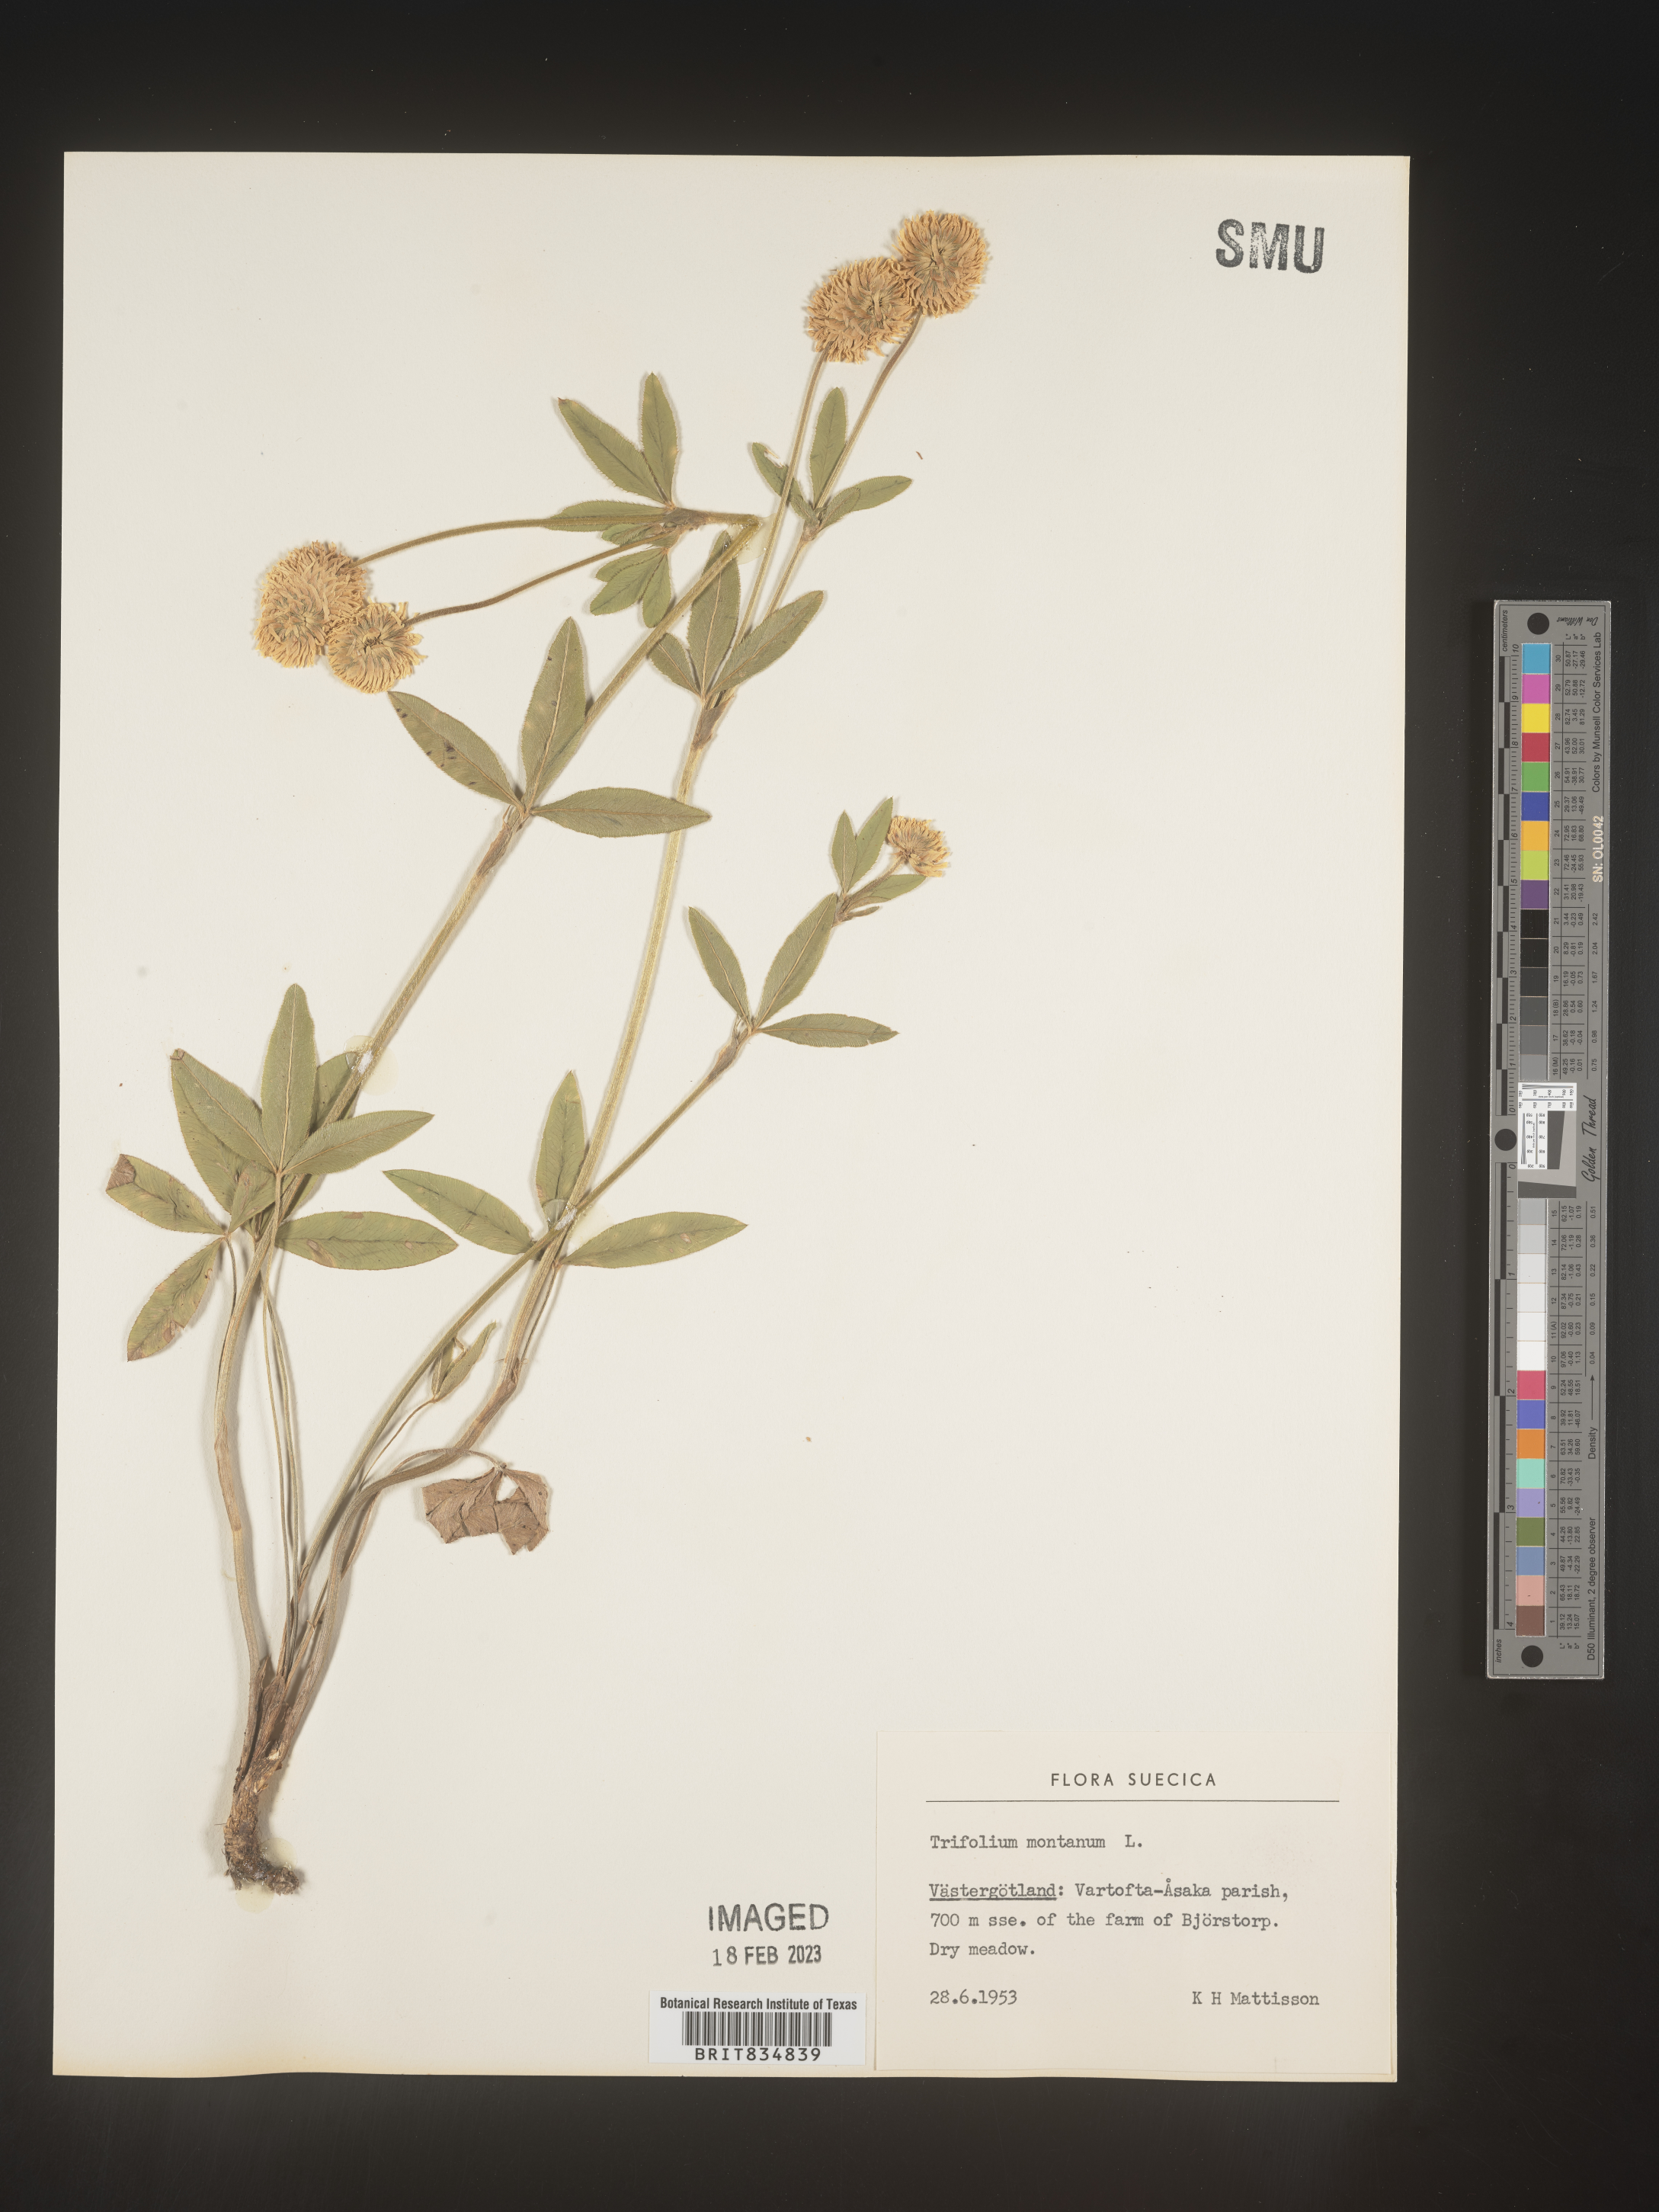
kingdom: Plantae
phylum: Tracheophyta
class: Magnoliopsida
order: Fabales
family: Fabaceae
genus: Trifolium
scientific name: Trifolium
